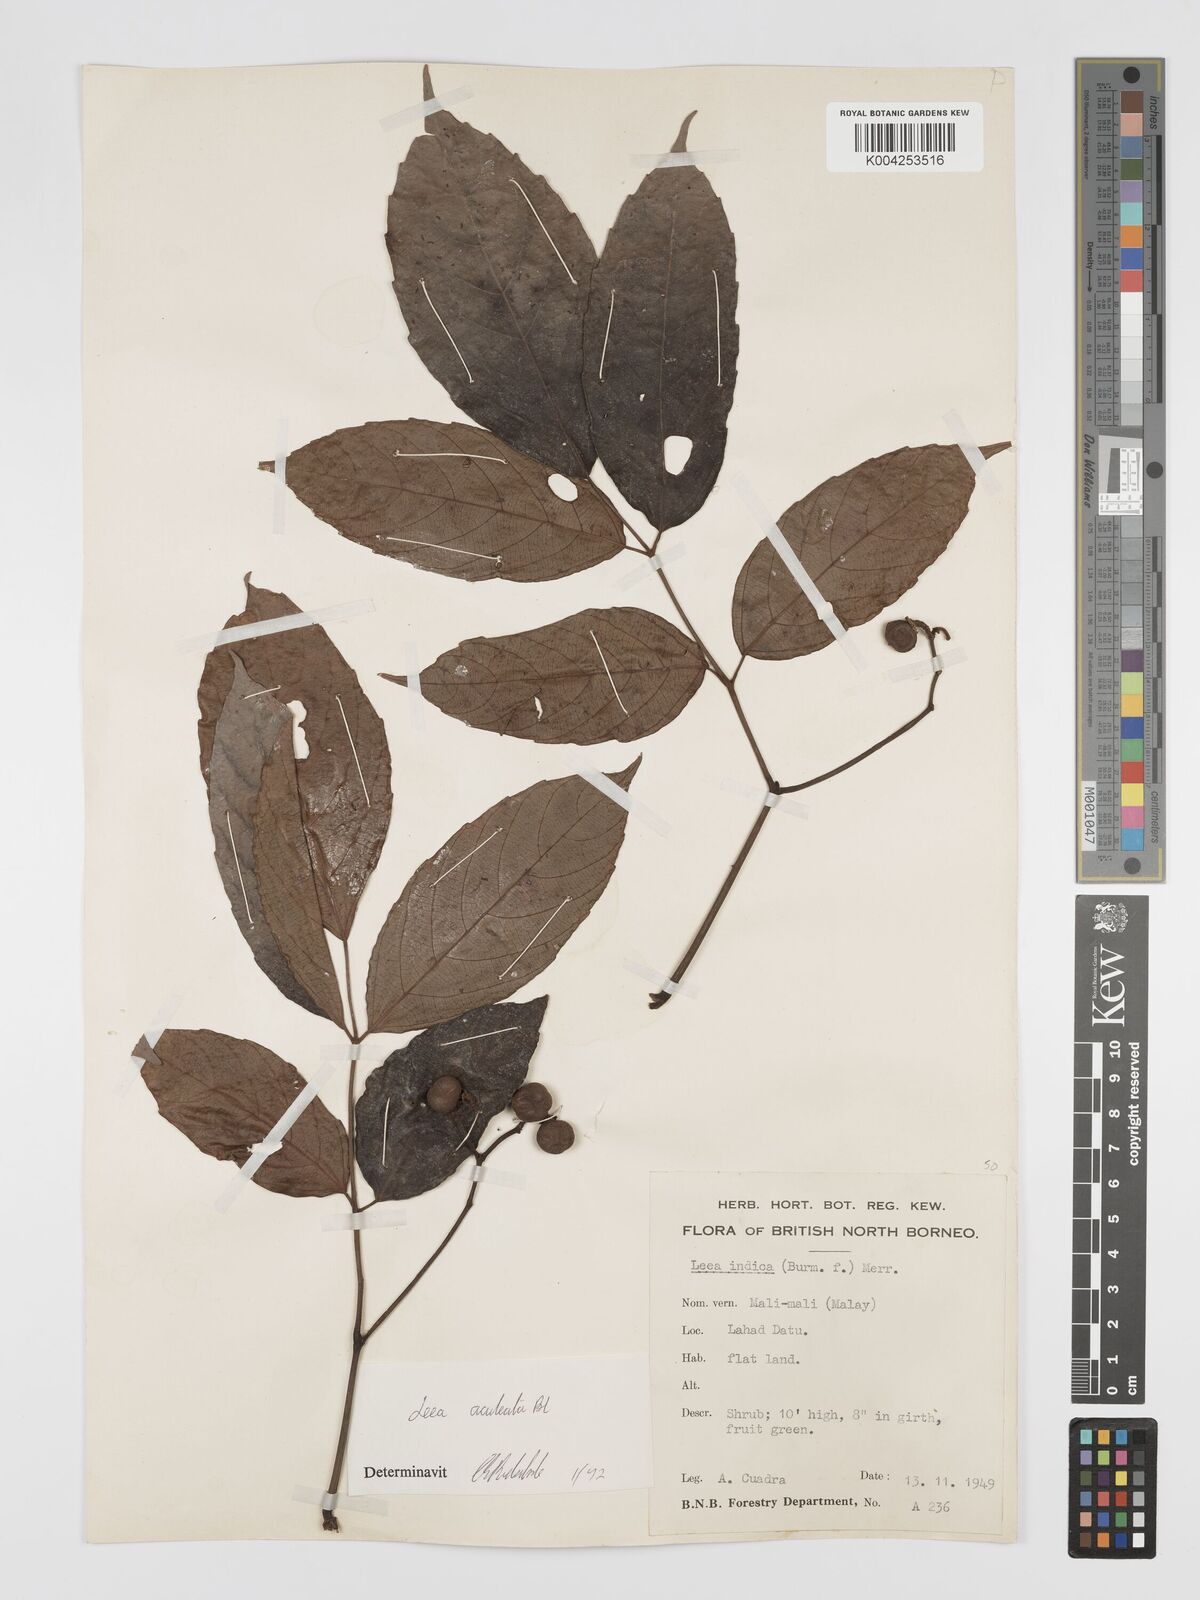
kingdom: Plantae
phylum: Tracheophyta
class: Magnoliopsida
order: Vitales
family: Vitaceae
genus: Leea
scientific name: Leea aculeata
